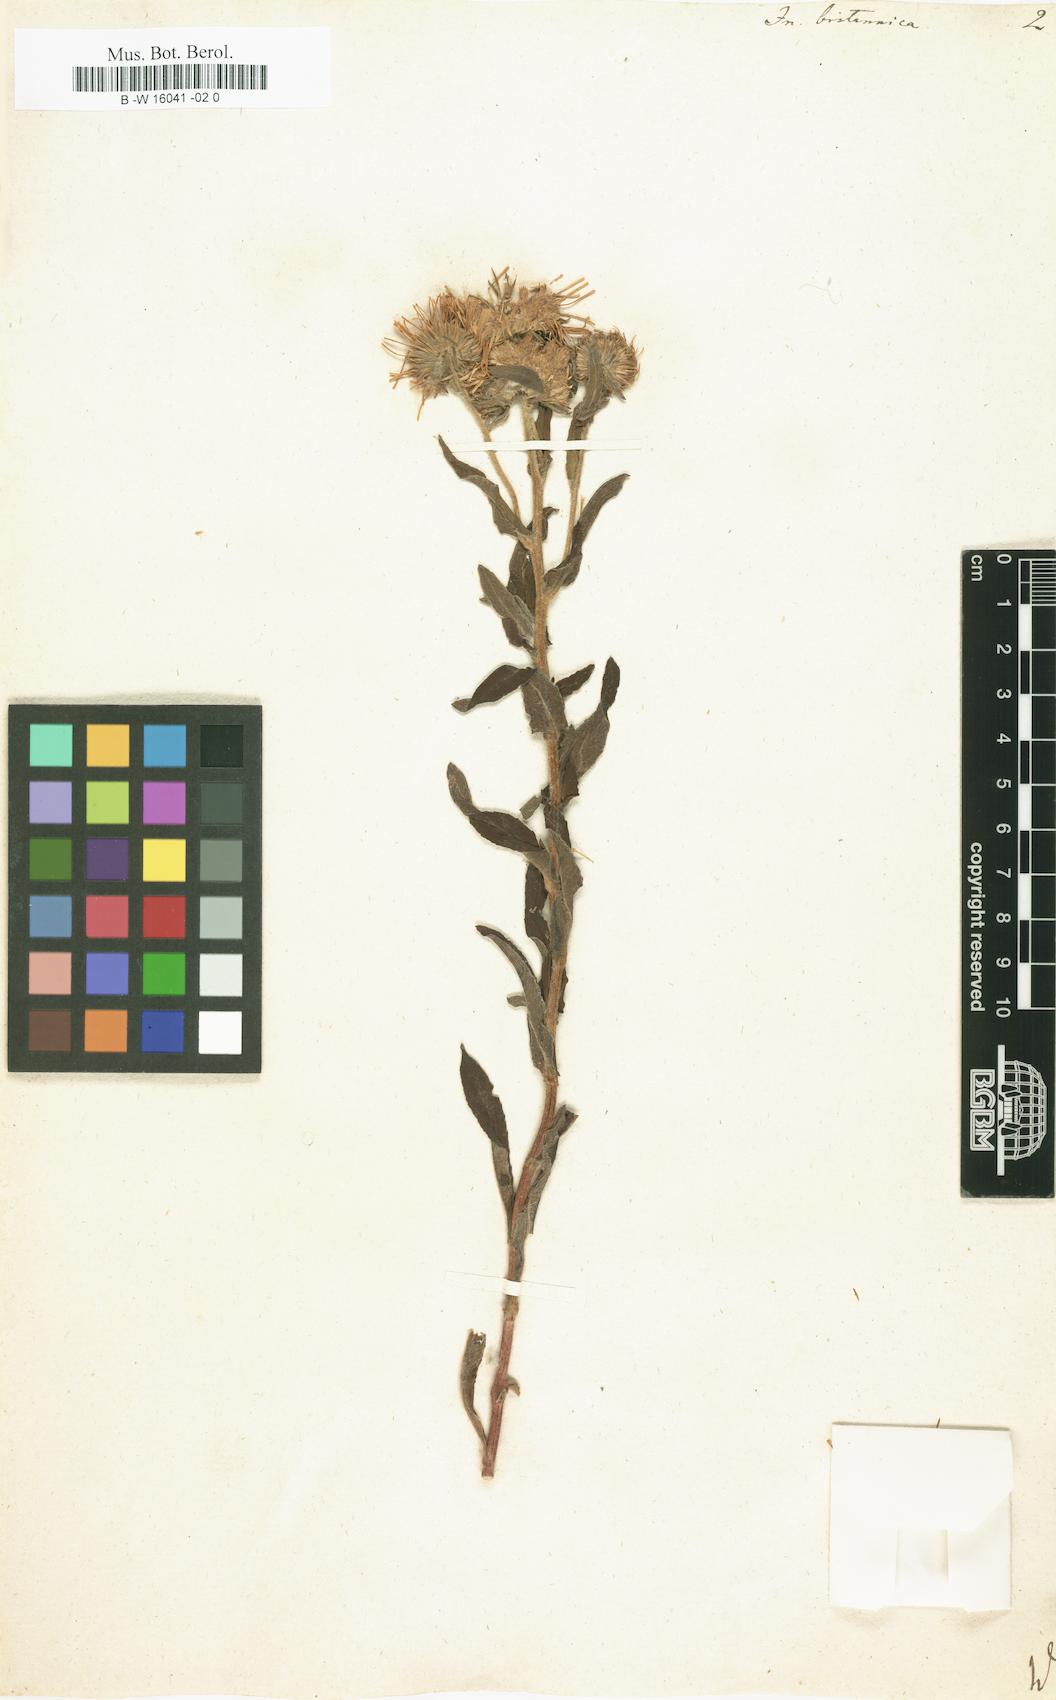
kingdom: Plantae
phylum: Tracheophyta
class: Magnoliopsida
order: Asterales
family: Asteraceae
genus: Pentanema
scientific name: Pentanema britannicum
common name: British elecampane
